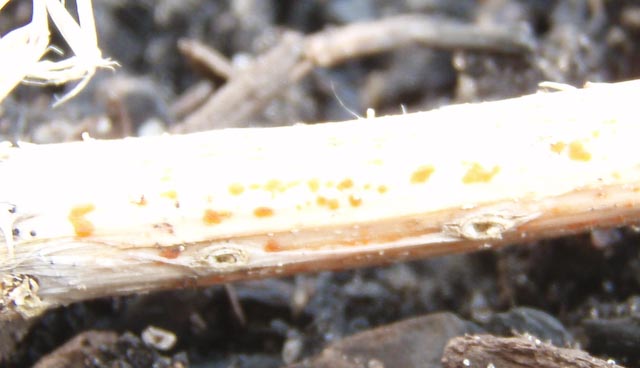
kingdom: Fungi
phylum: Ascomycota
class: Leotiomycetes
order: Helotiales
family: Calloriaceae
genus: Calloria
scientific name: Calloria urticae
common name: nælde-orangeskive
